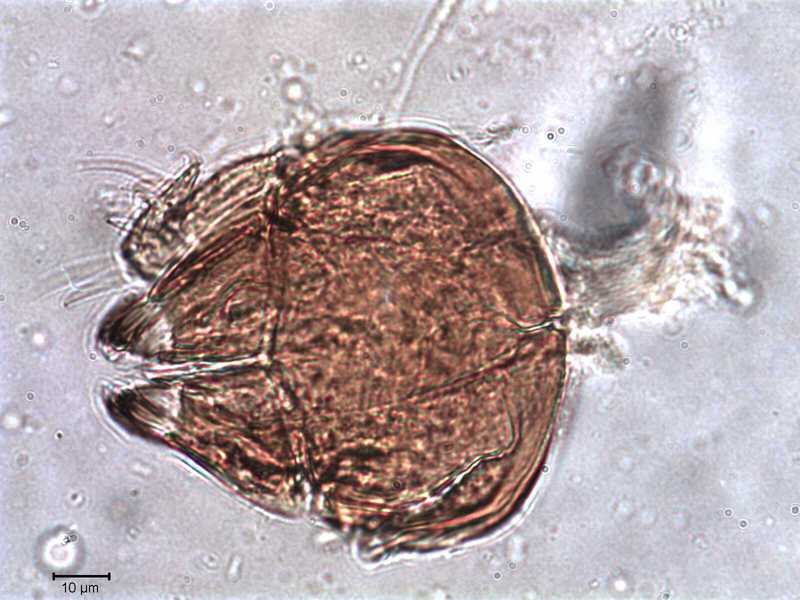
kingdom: Animalia
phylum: Arthropoda
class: Arachnida
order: Sarcoptiformes
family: Tegoribatidae
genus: Plakoribates
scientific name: Plakoribates multicuspidatus
